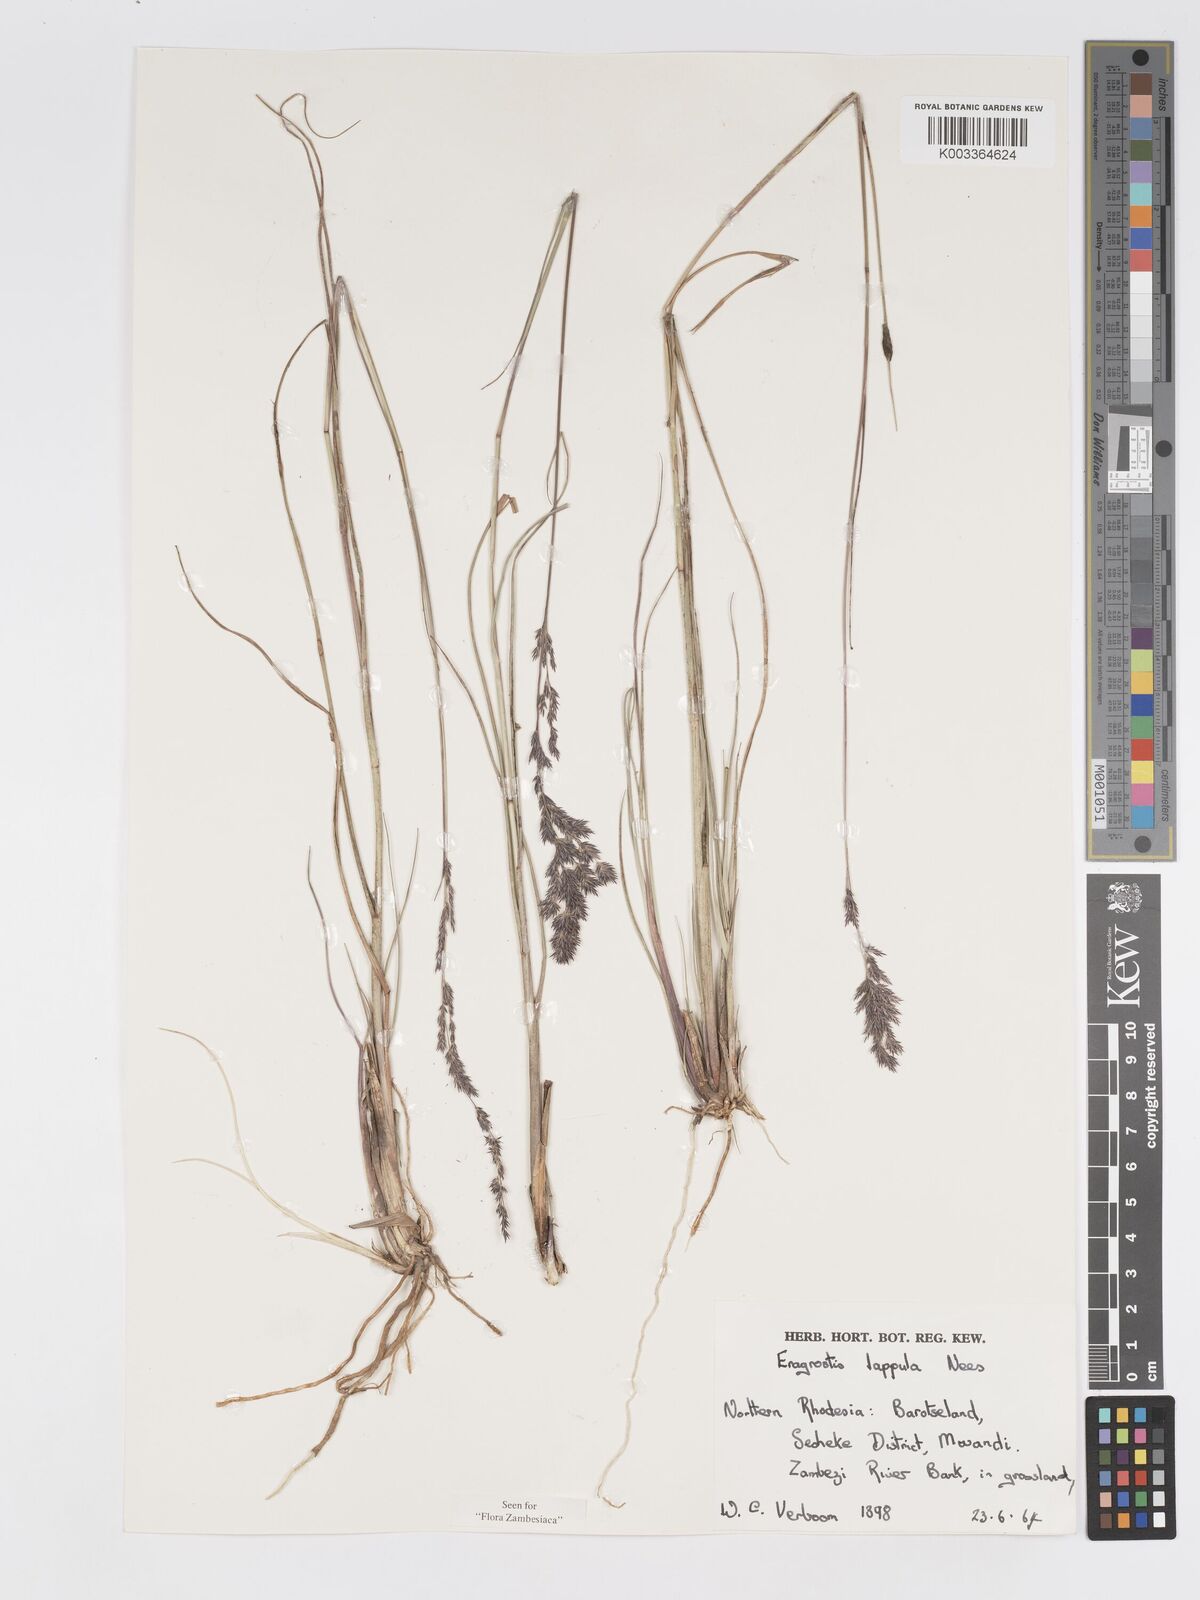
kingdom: Plantae
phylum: Tracheophyta
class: Liliopsida
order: Poales
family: Poaceae
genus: Eragrostis
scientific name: Eragrostis lappula
